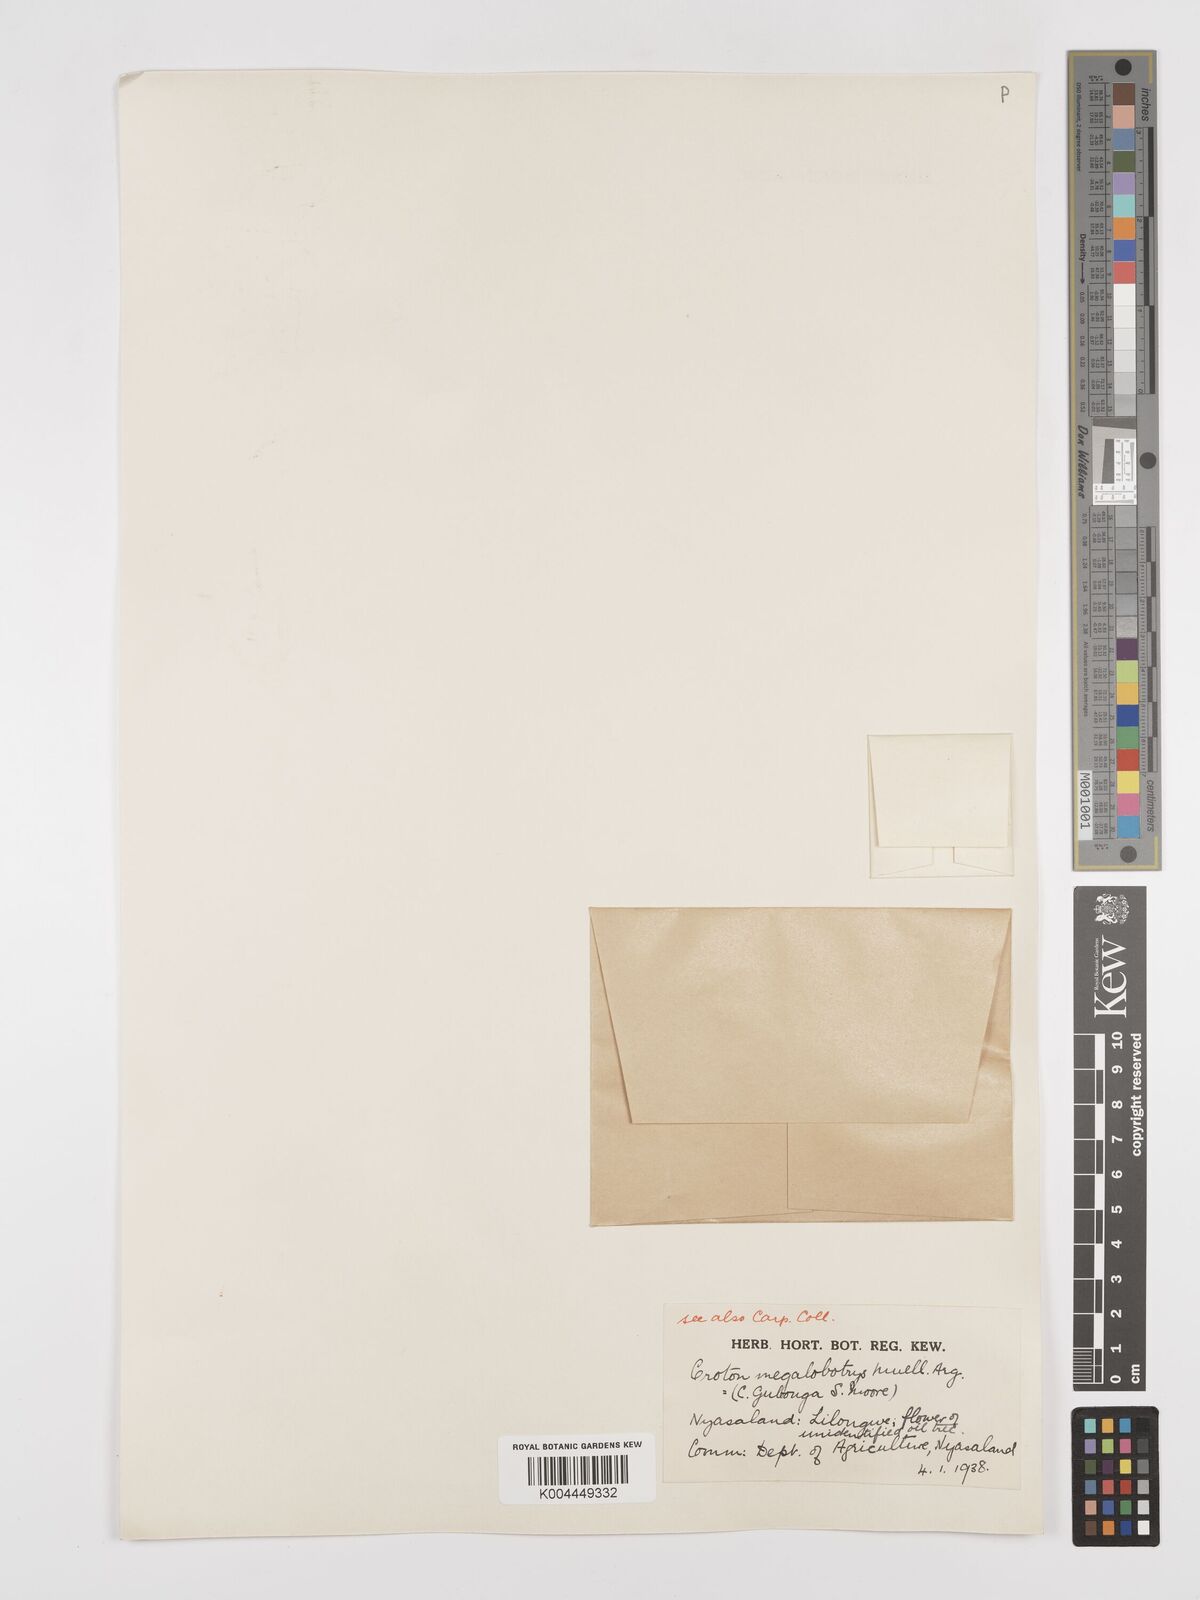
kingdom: Plantae
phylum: Tracheophyta
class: Magnoliopsida
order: Malpighiales
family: Euphorbiaceae
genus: Croton
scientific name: Croton megalobotrys
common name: Large fever berry
